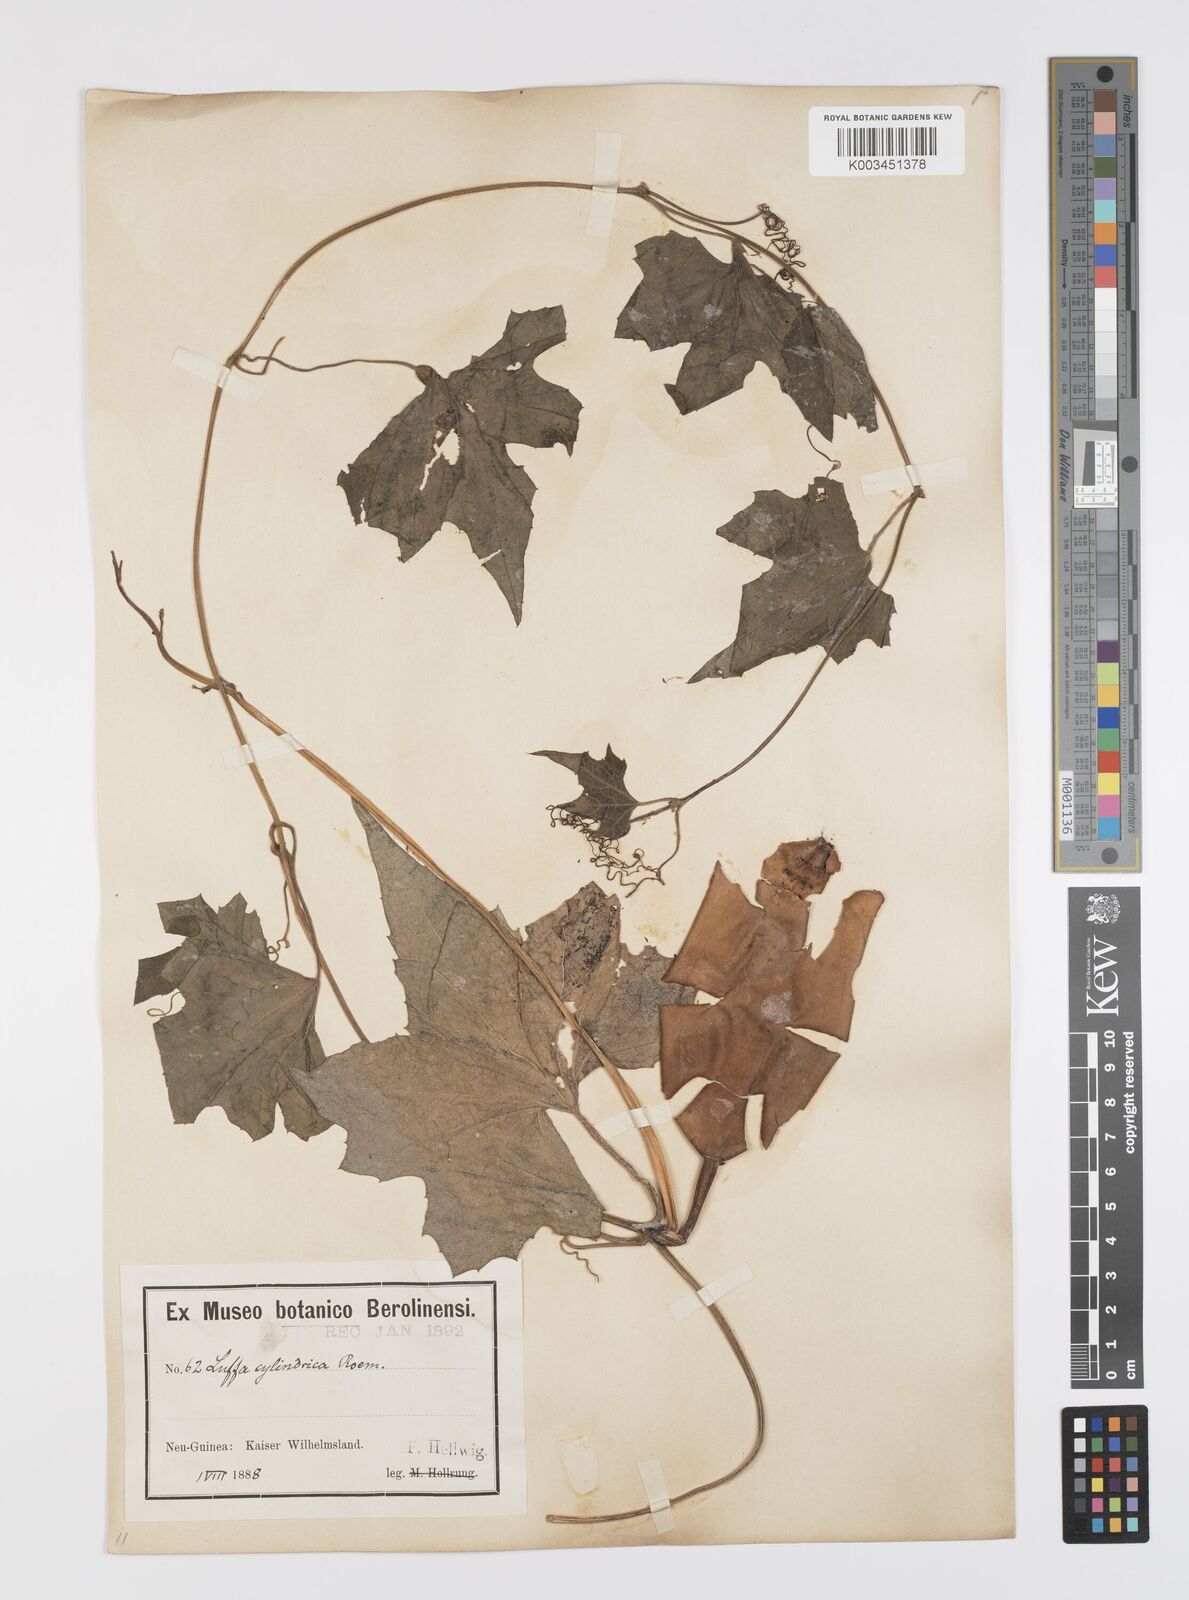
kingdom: Plantae
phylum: Tracheophyta
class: Magnoliopsida
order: Cucurbitales
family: Cucurbitaceae
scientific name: Cucurbitaceae
